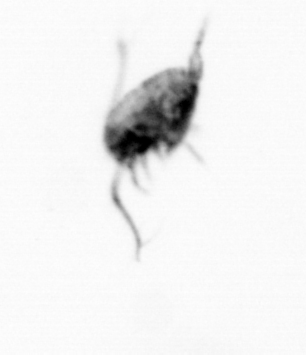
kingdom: Animalia
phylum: Arthropoda
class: Copepoda
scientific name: Copepoda
